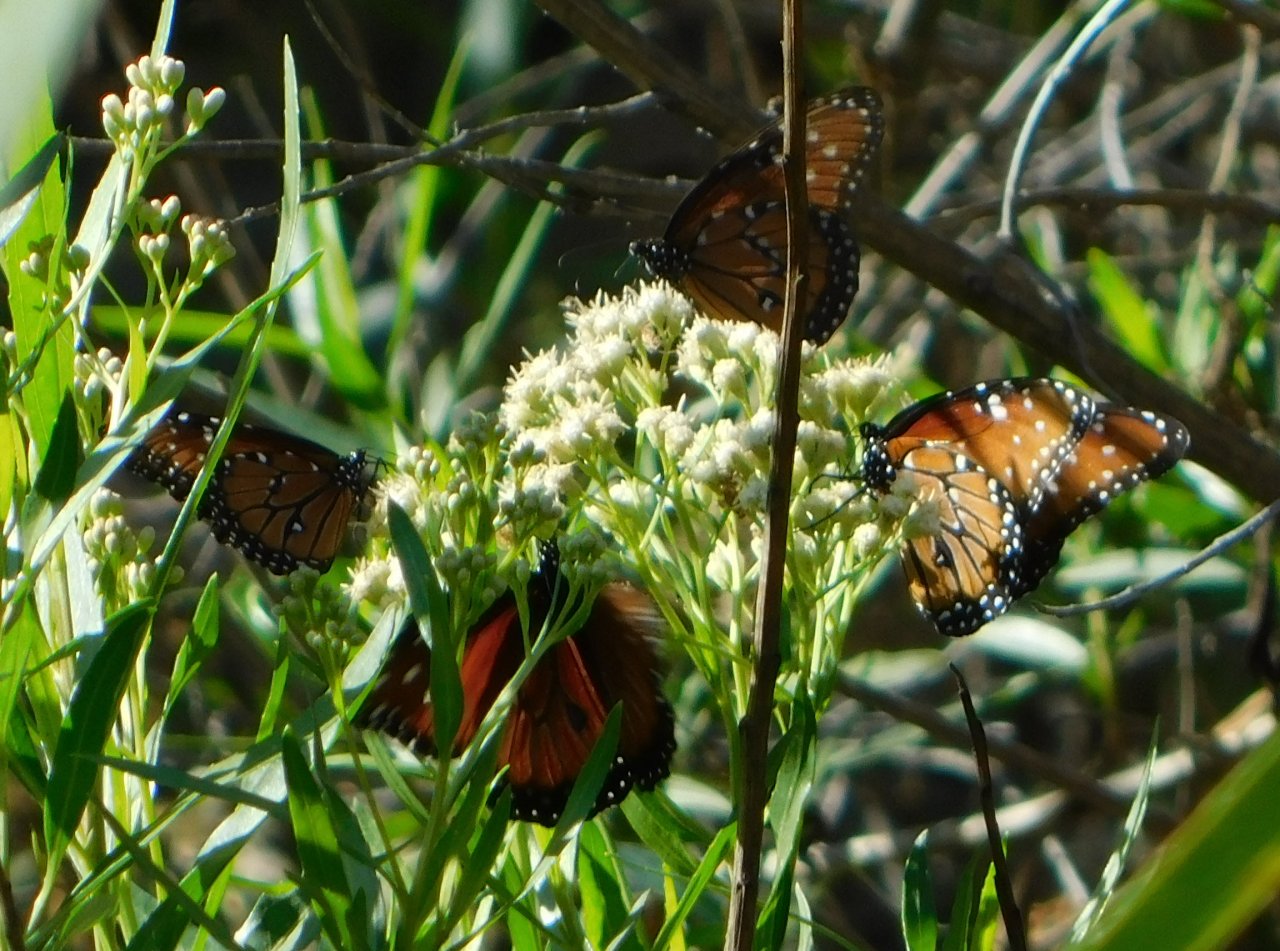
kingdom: Animalia
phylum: Arthropoda
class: Insecta
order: Lepidoptera
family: Nymphalidae
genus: Danaus
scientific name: Danaus gilippus
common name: Queen
